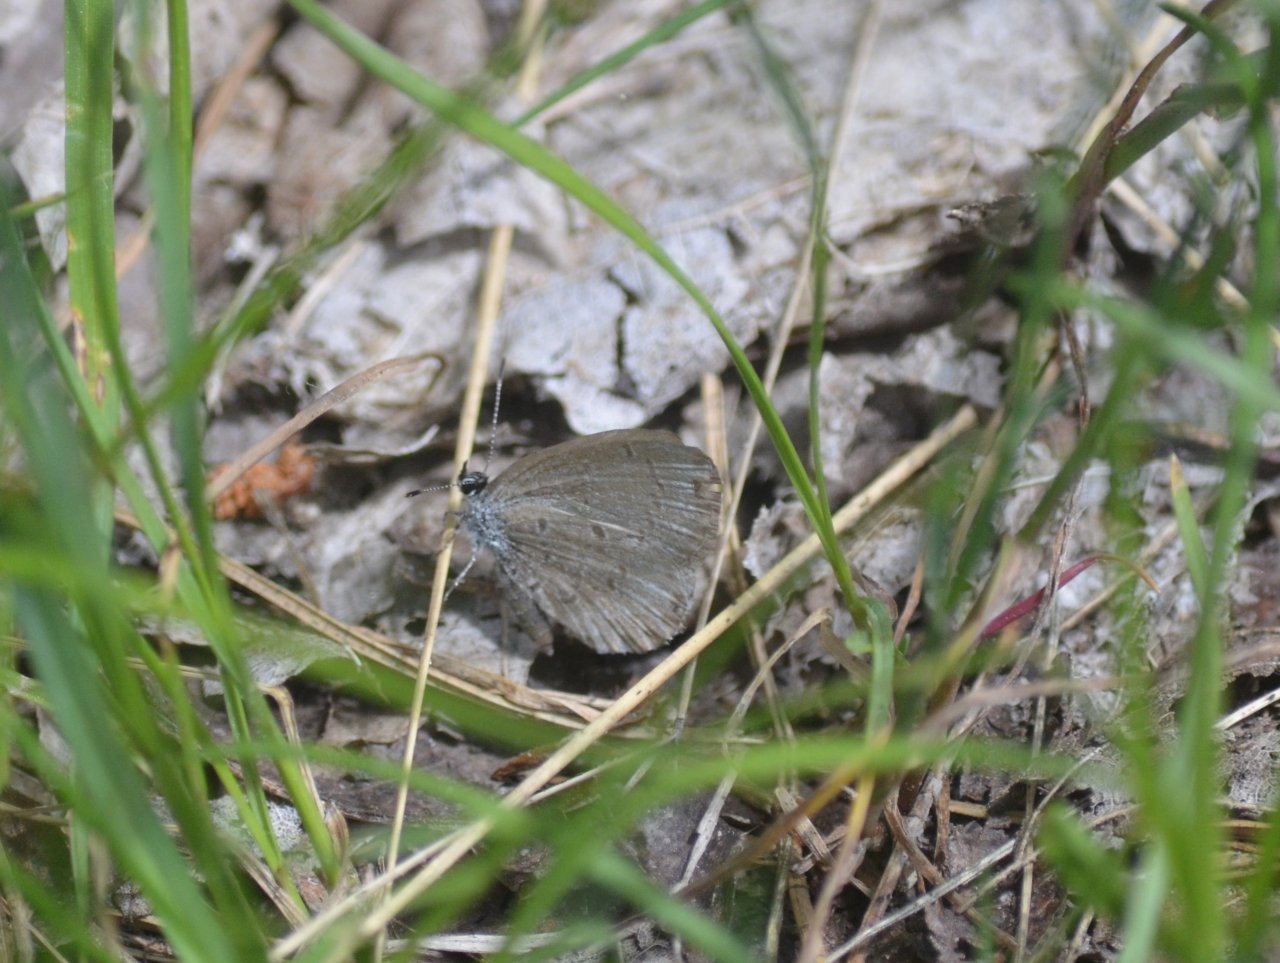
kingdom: Animalia
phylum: Arthropoda
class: Insecta
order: Lepidoptera
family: Lycaenidae
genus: Celastrina
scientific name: Celastrina
